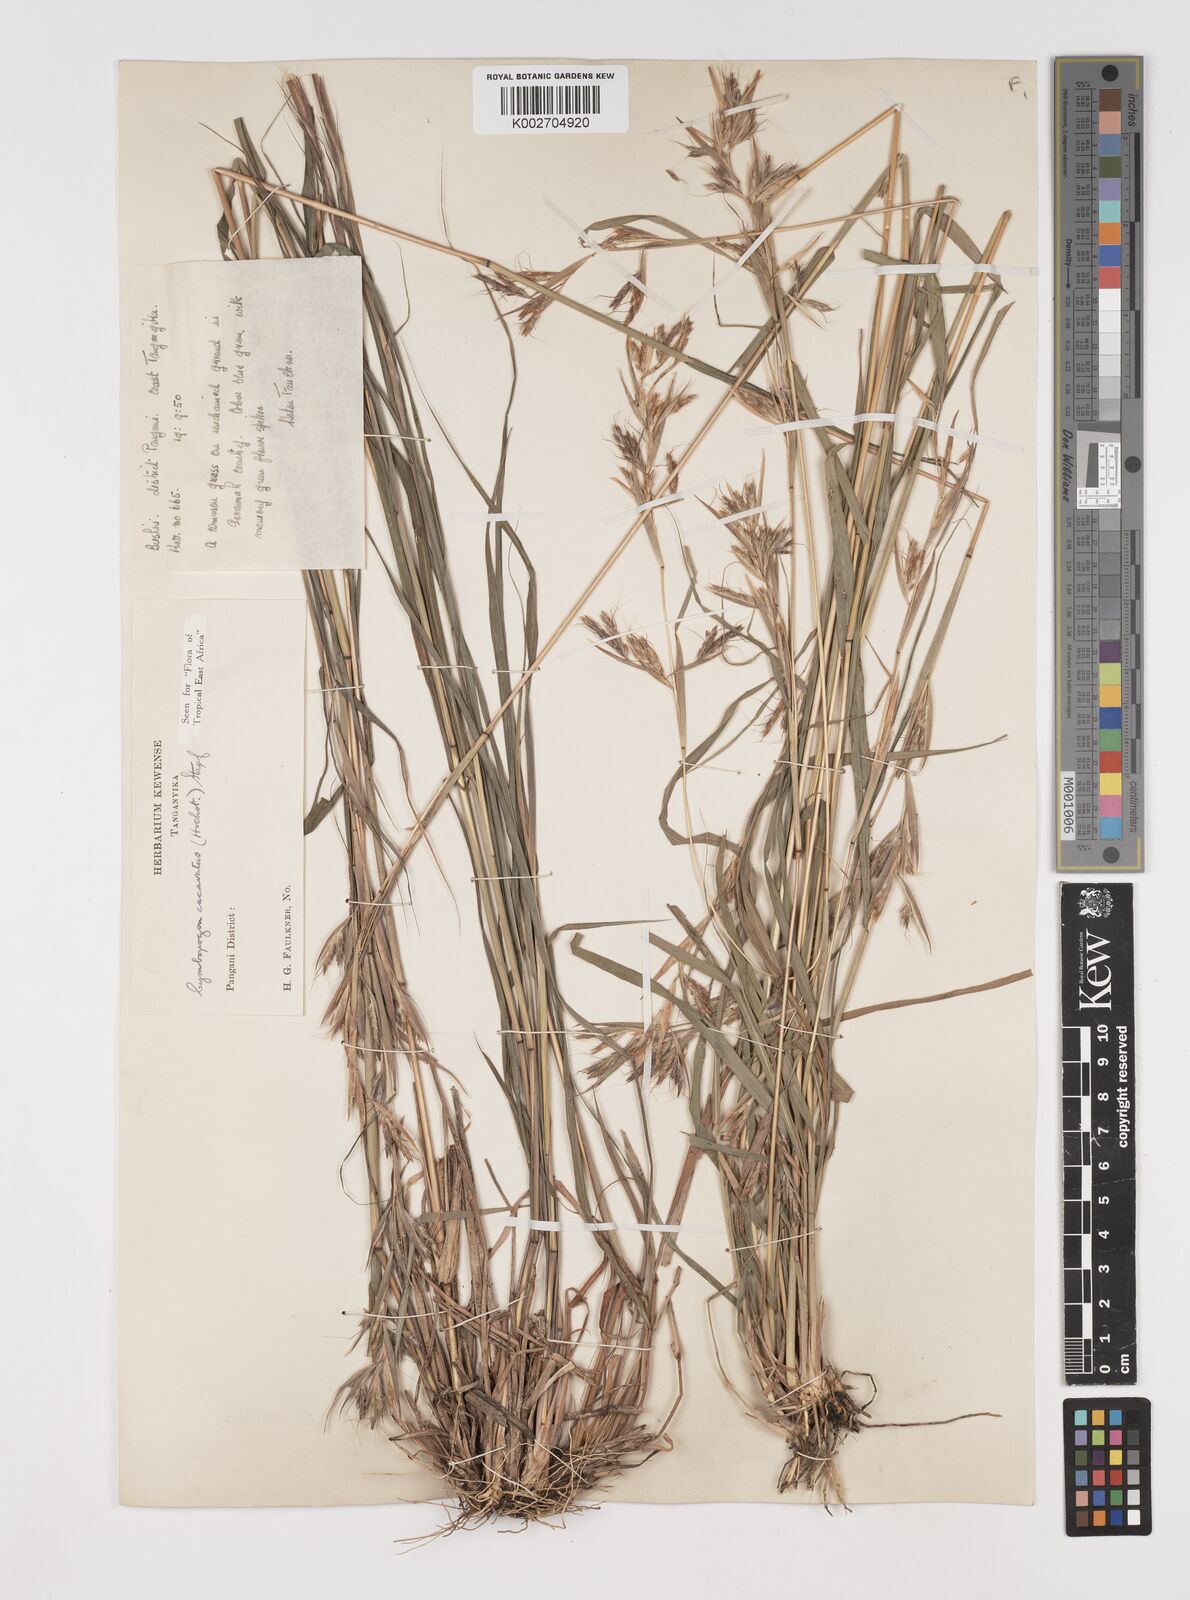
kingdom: Plantae
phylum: Tracheophyta
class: Liliopsida
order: Poales
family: Poaceae
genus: Cymbopogon
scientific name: Cymbopogon caesius
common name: Kachi grass
